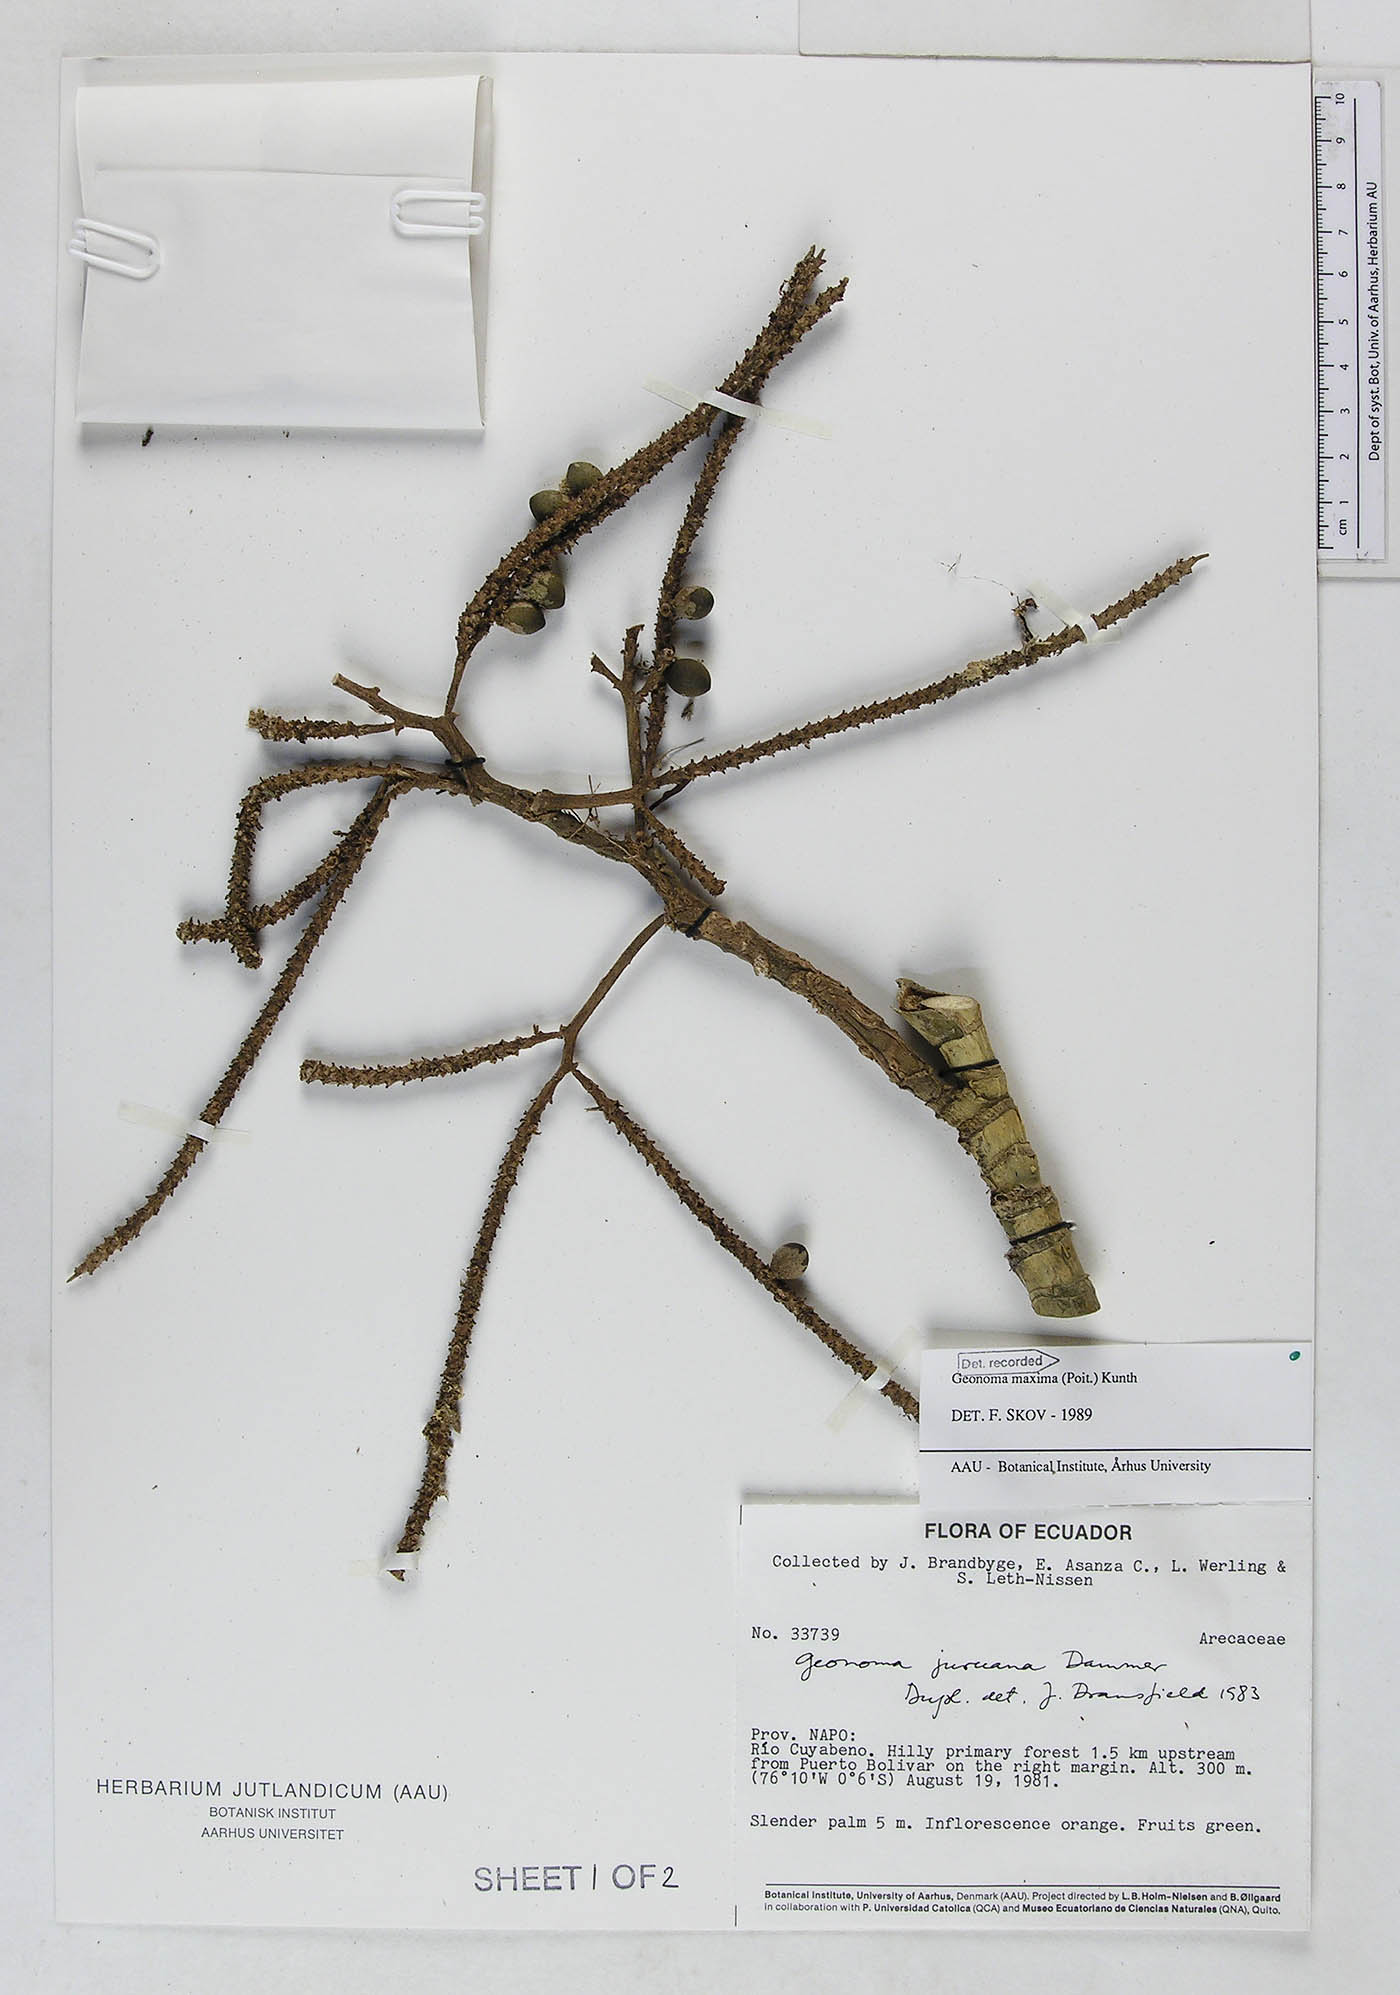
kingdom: Plantae
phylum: Tracheophyta
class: Liliopsida
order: Arecales
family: Arecaceae
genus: Geonoma
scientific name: Geonoma maxima
